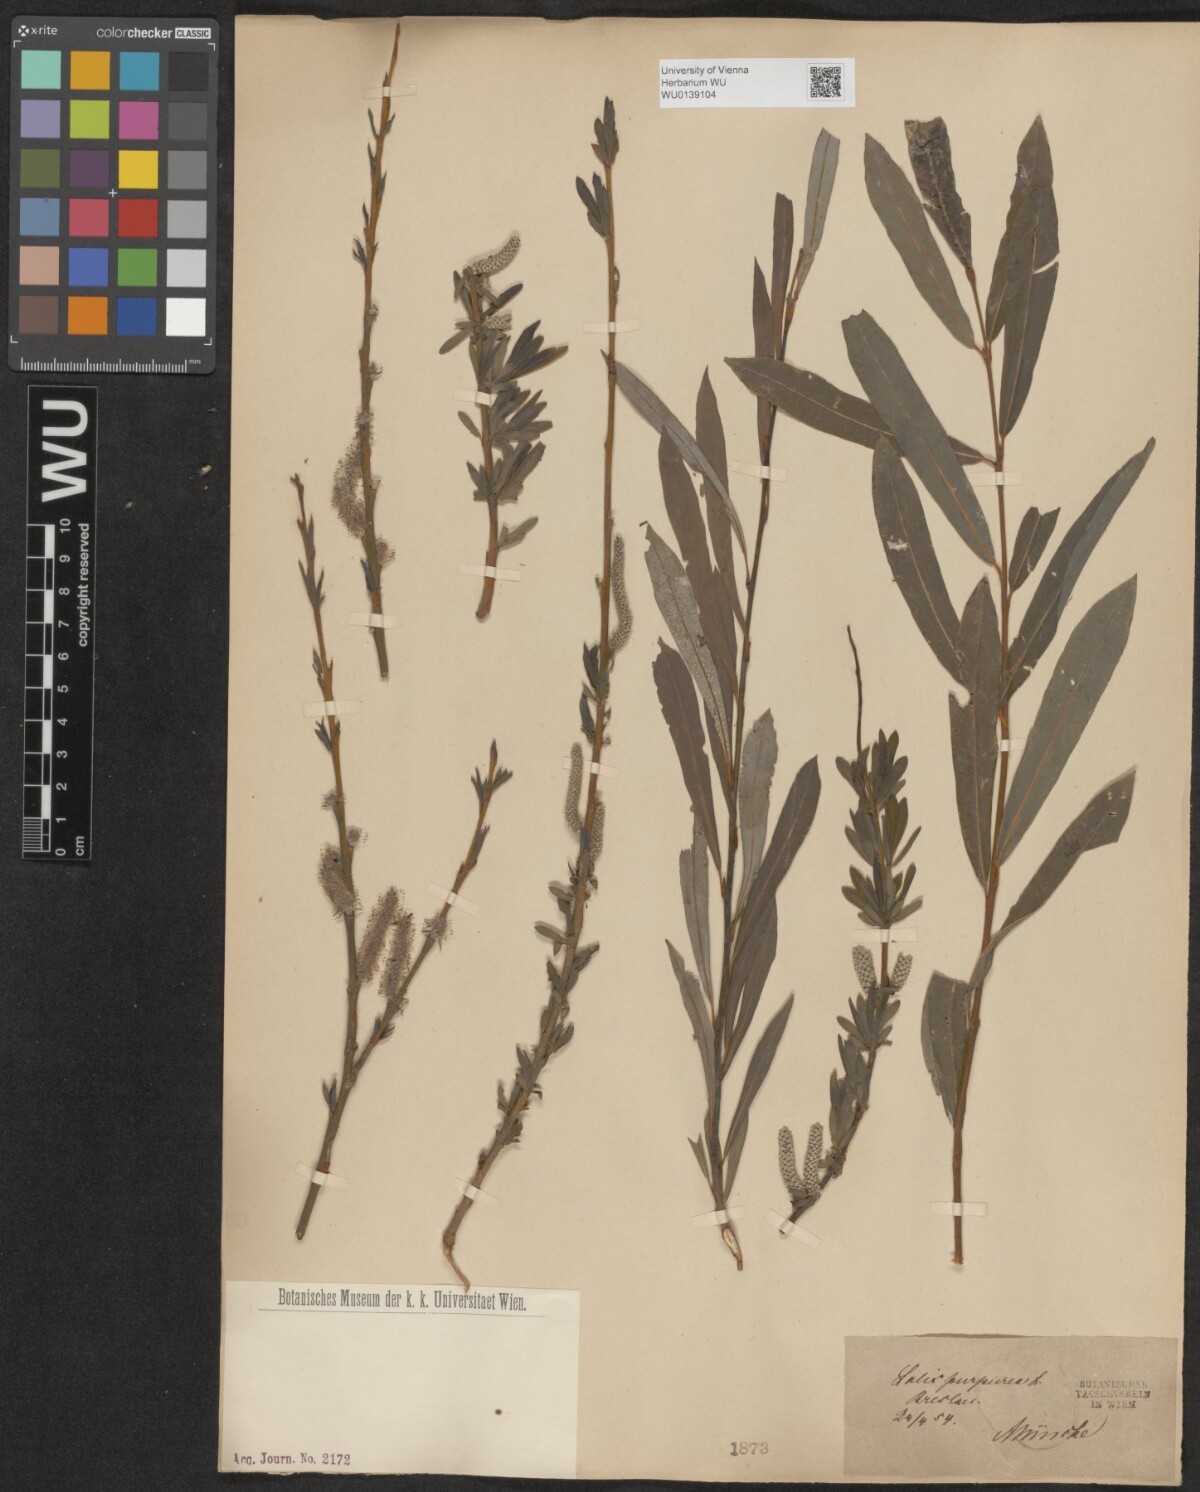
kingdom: Plantae
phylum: Tracheophyta
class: Magnoliopsida
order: Malpighiales
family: Salicaceae
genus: Salix
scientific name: Salix purpurea
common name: Purple willow
